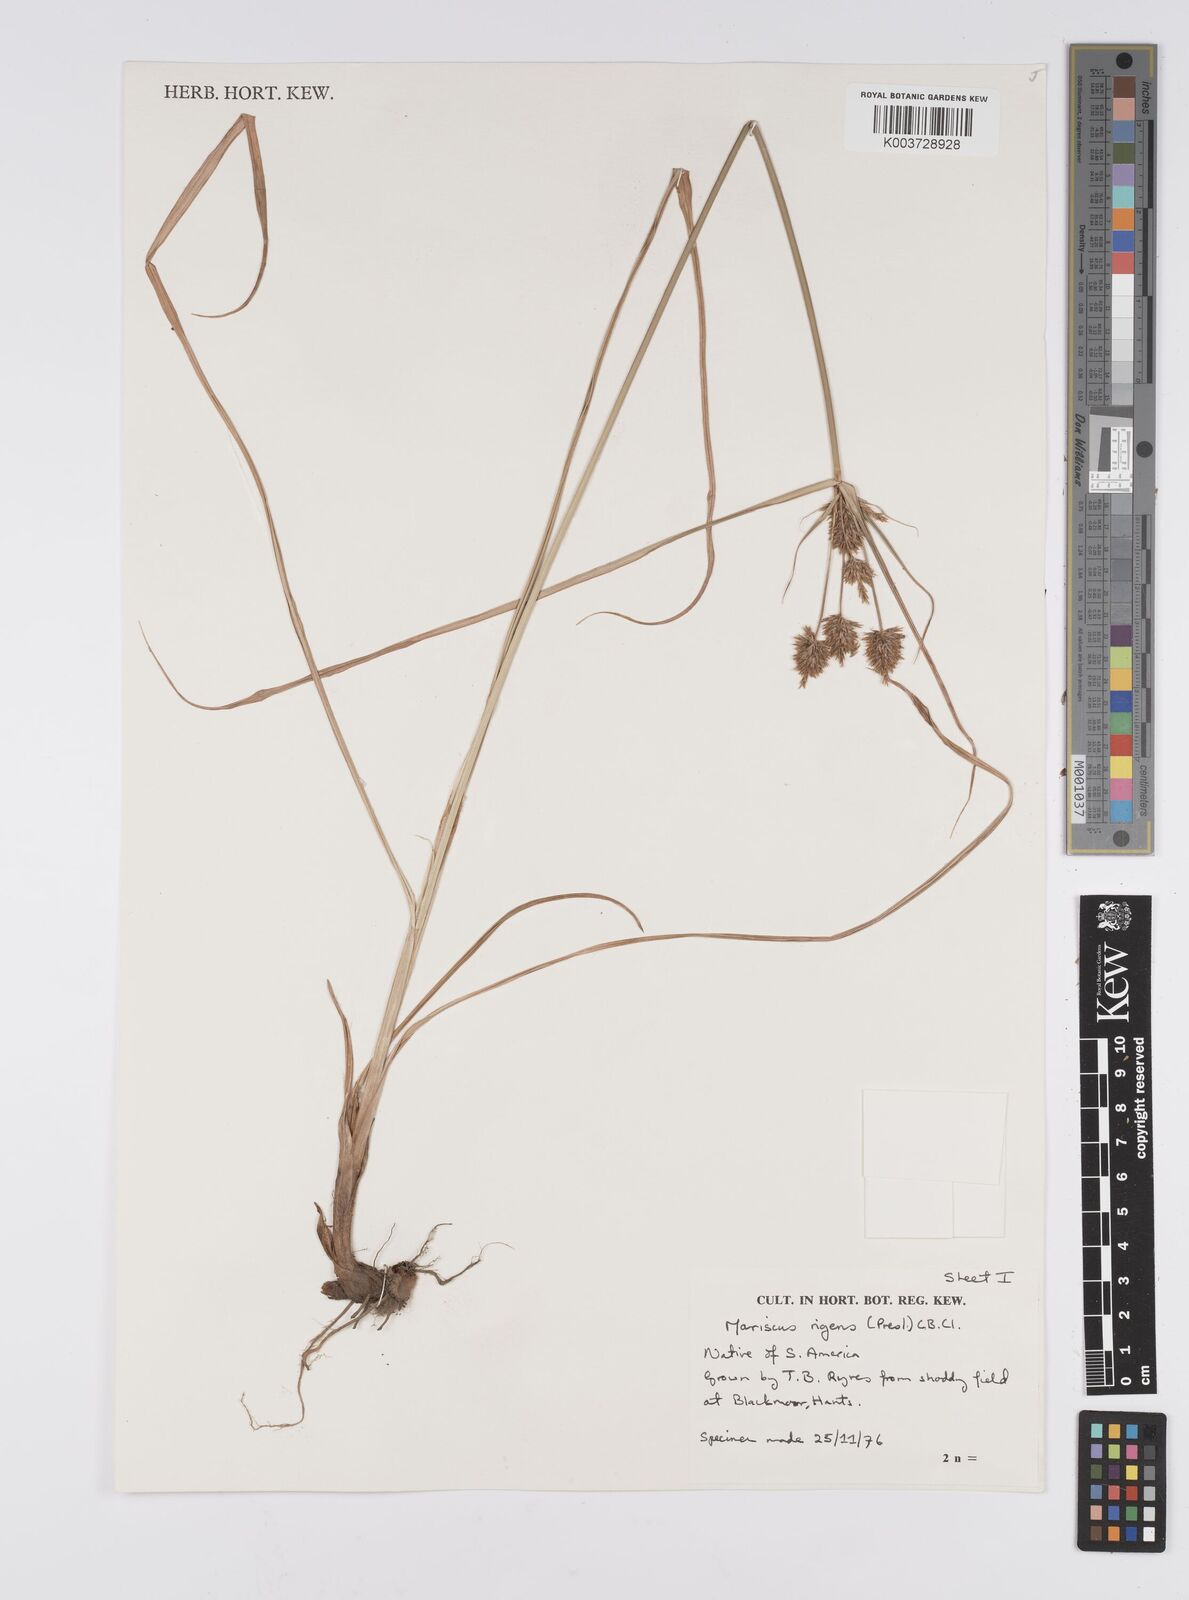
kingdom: Plantae
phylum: Tracheophyta
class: Liliopsida
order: Poales
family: Cyperaceae
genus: Cyperus
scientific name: Cyperus rigens
